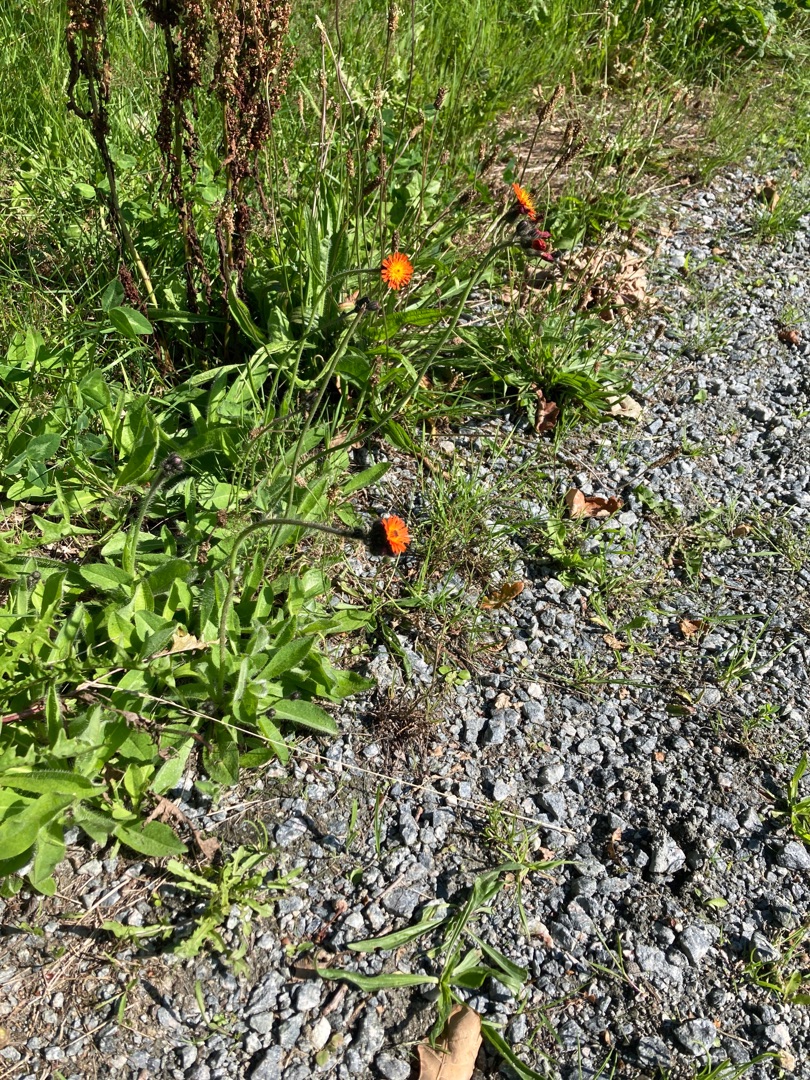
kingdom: Plantae
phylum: Tracheophyta
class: Magnoliopsida
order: Asterales
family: Asteraceae
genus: Pilosella
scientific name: Pilosella aurantiaca
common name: Pomerans-høgeurt
